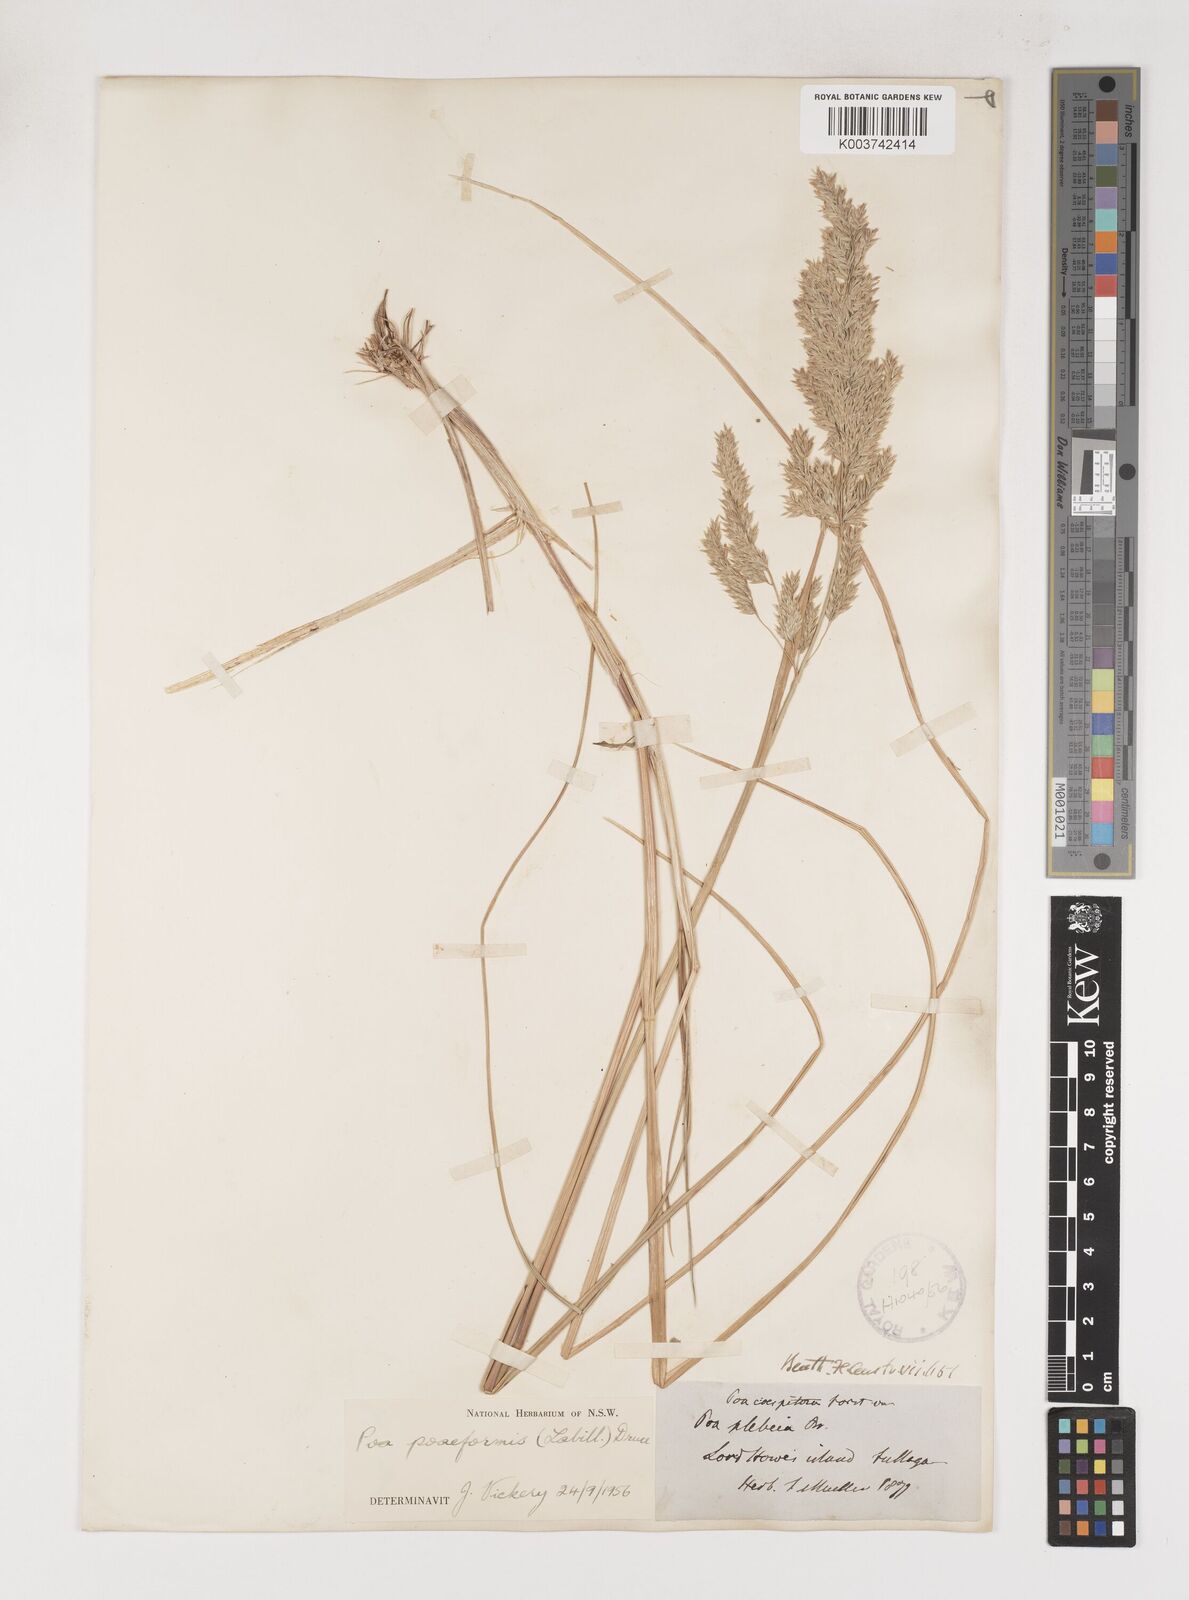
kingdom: Plantae
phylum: Tracheophyta
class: Liliopsida
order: Poales
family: Poaceae
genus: Poa
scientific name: Poa poiformis
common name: Tussock poa
